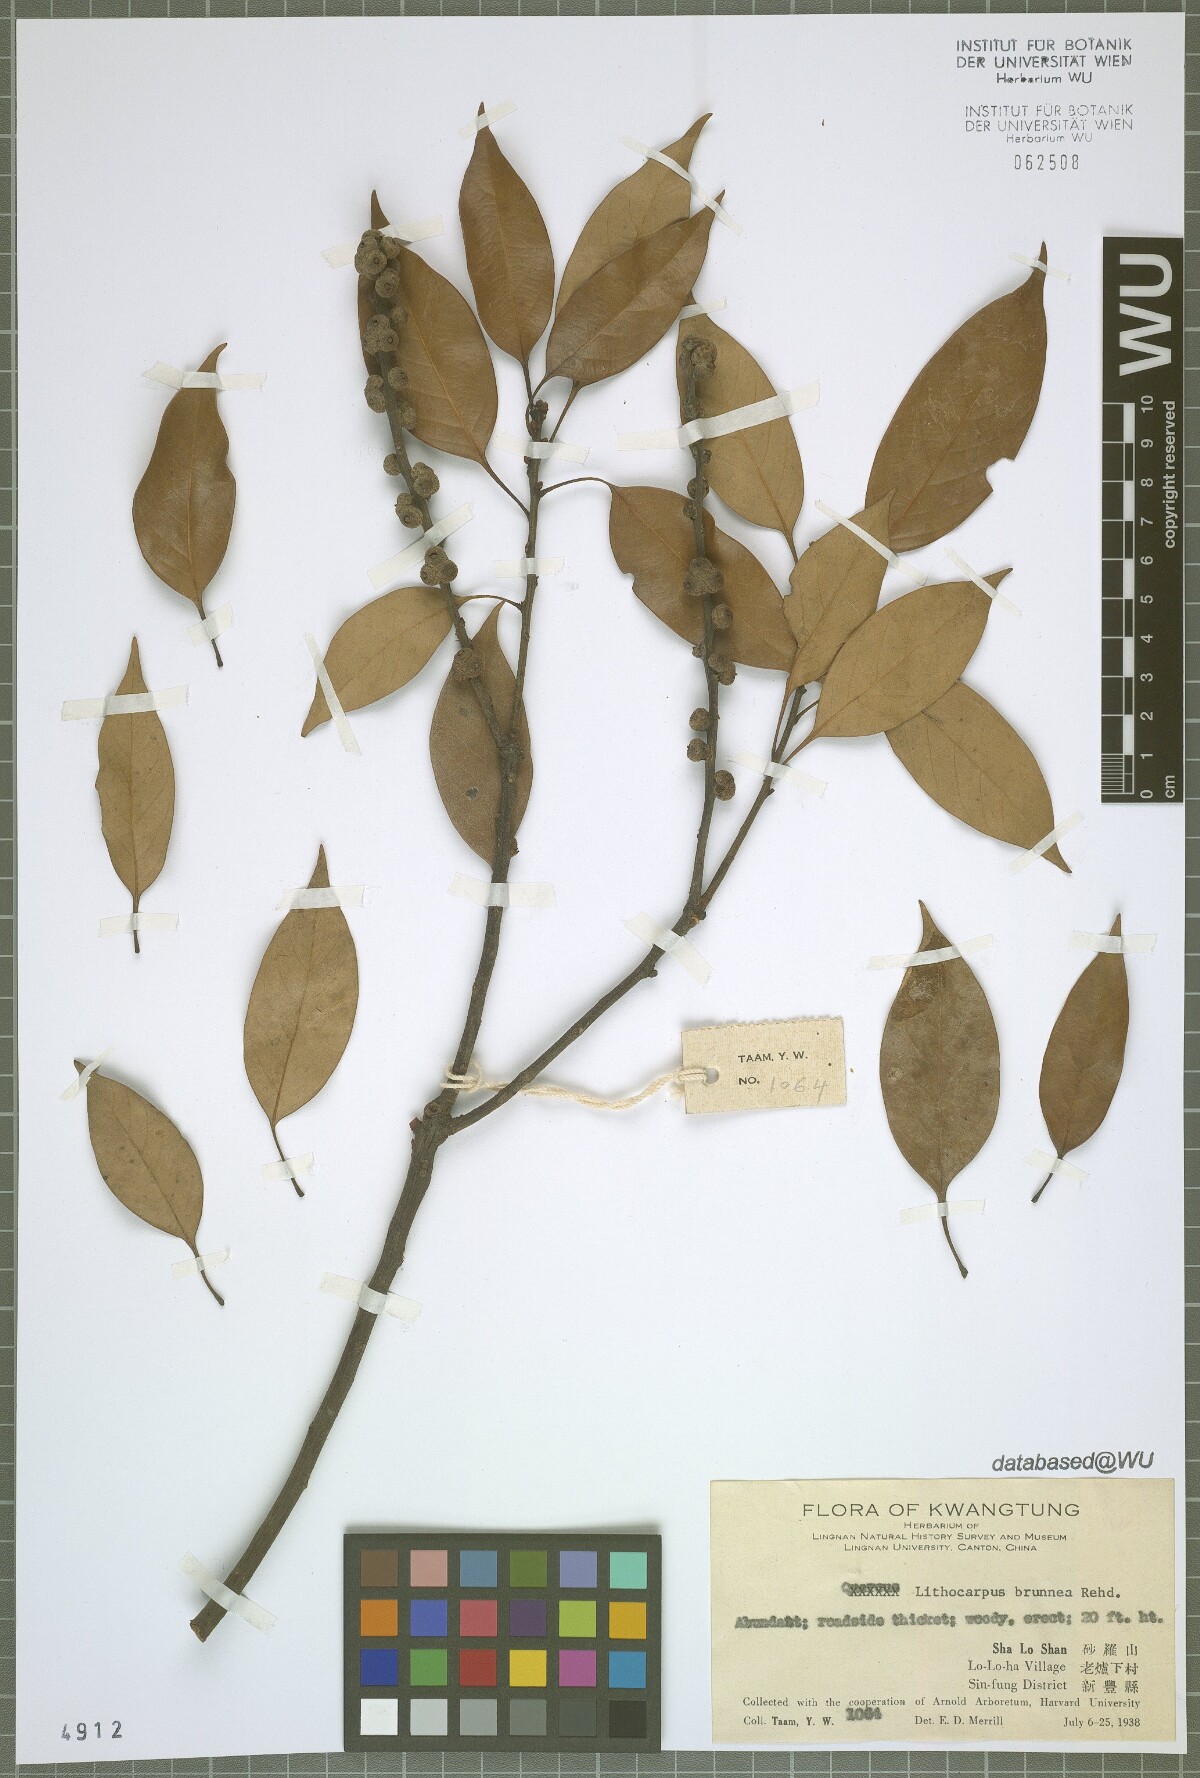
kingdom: Plantae
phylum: Tracheophyta
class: Magnoliopsida
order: Fagales
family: Fagaceae
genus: Lithocarpus
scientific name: Lithocarpus taitoensis
